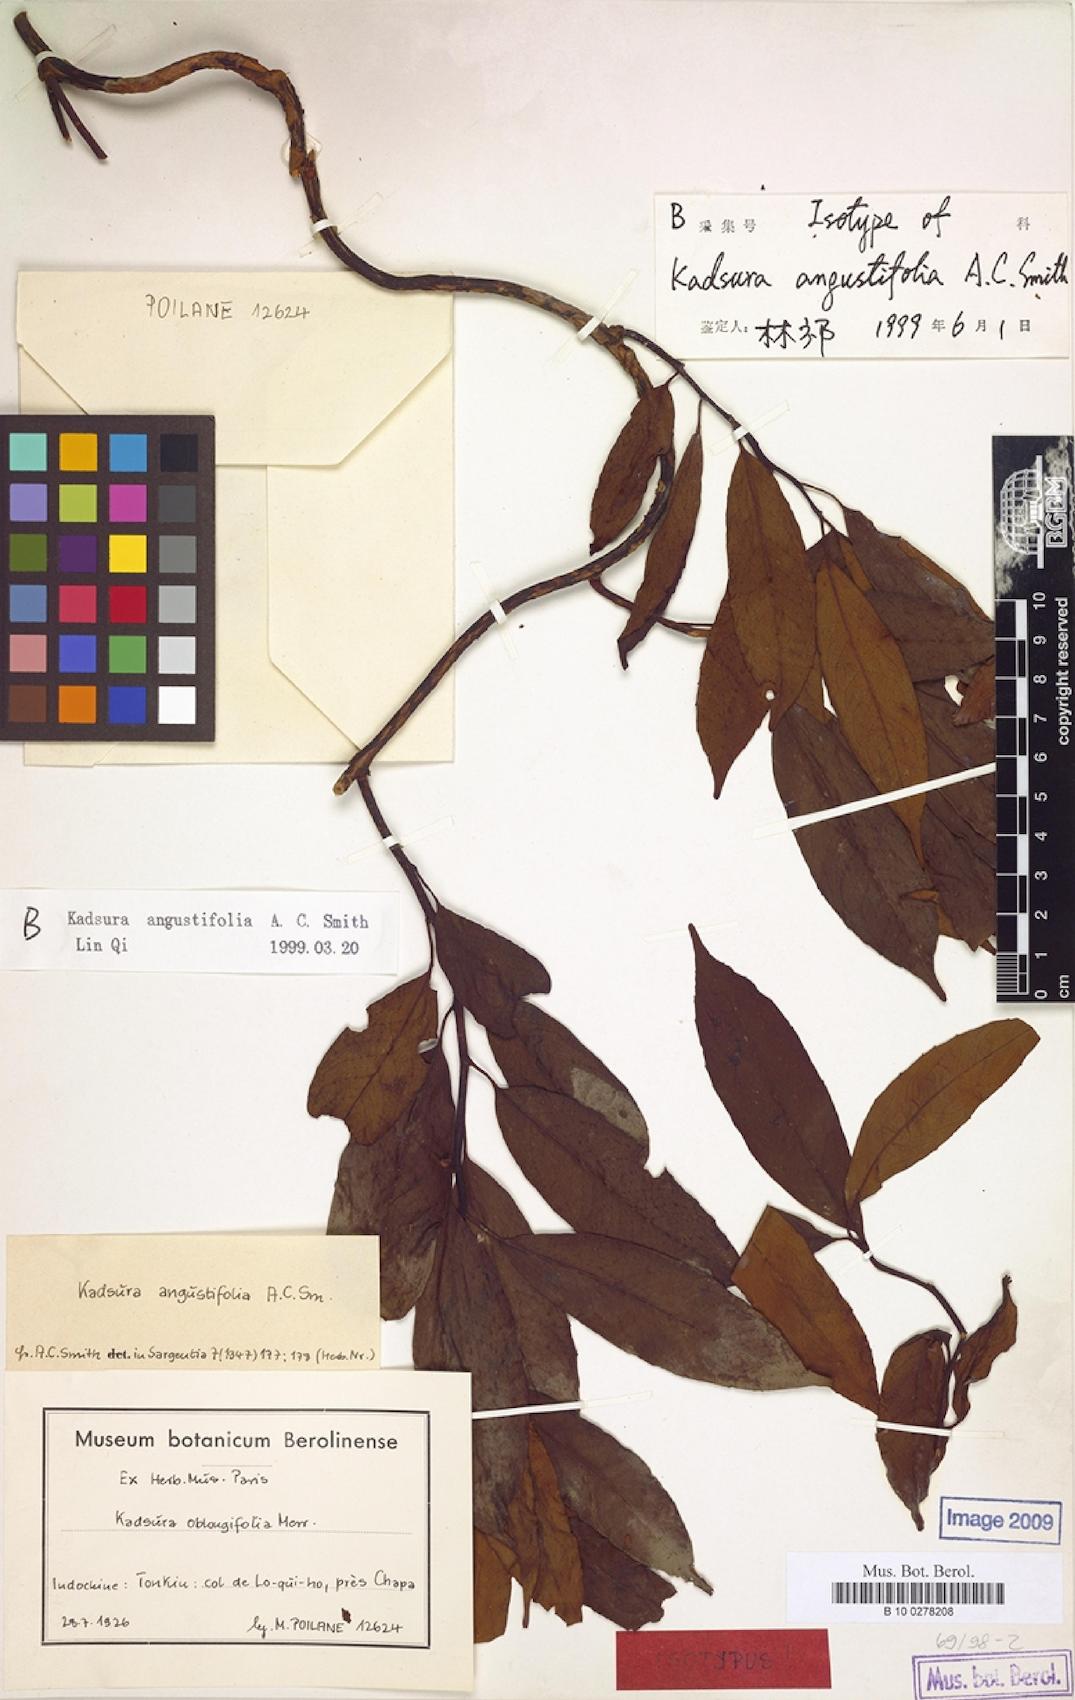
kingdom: Plantae
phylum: Tracheophyta
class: Magnoliopsida
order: Austrobaileyales
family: Schisandraceae
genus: Kadsura
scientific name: Kadsura angustifolia
